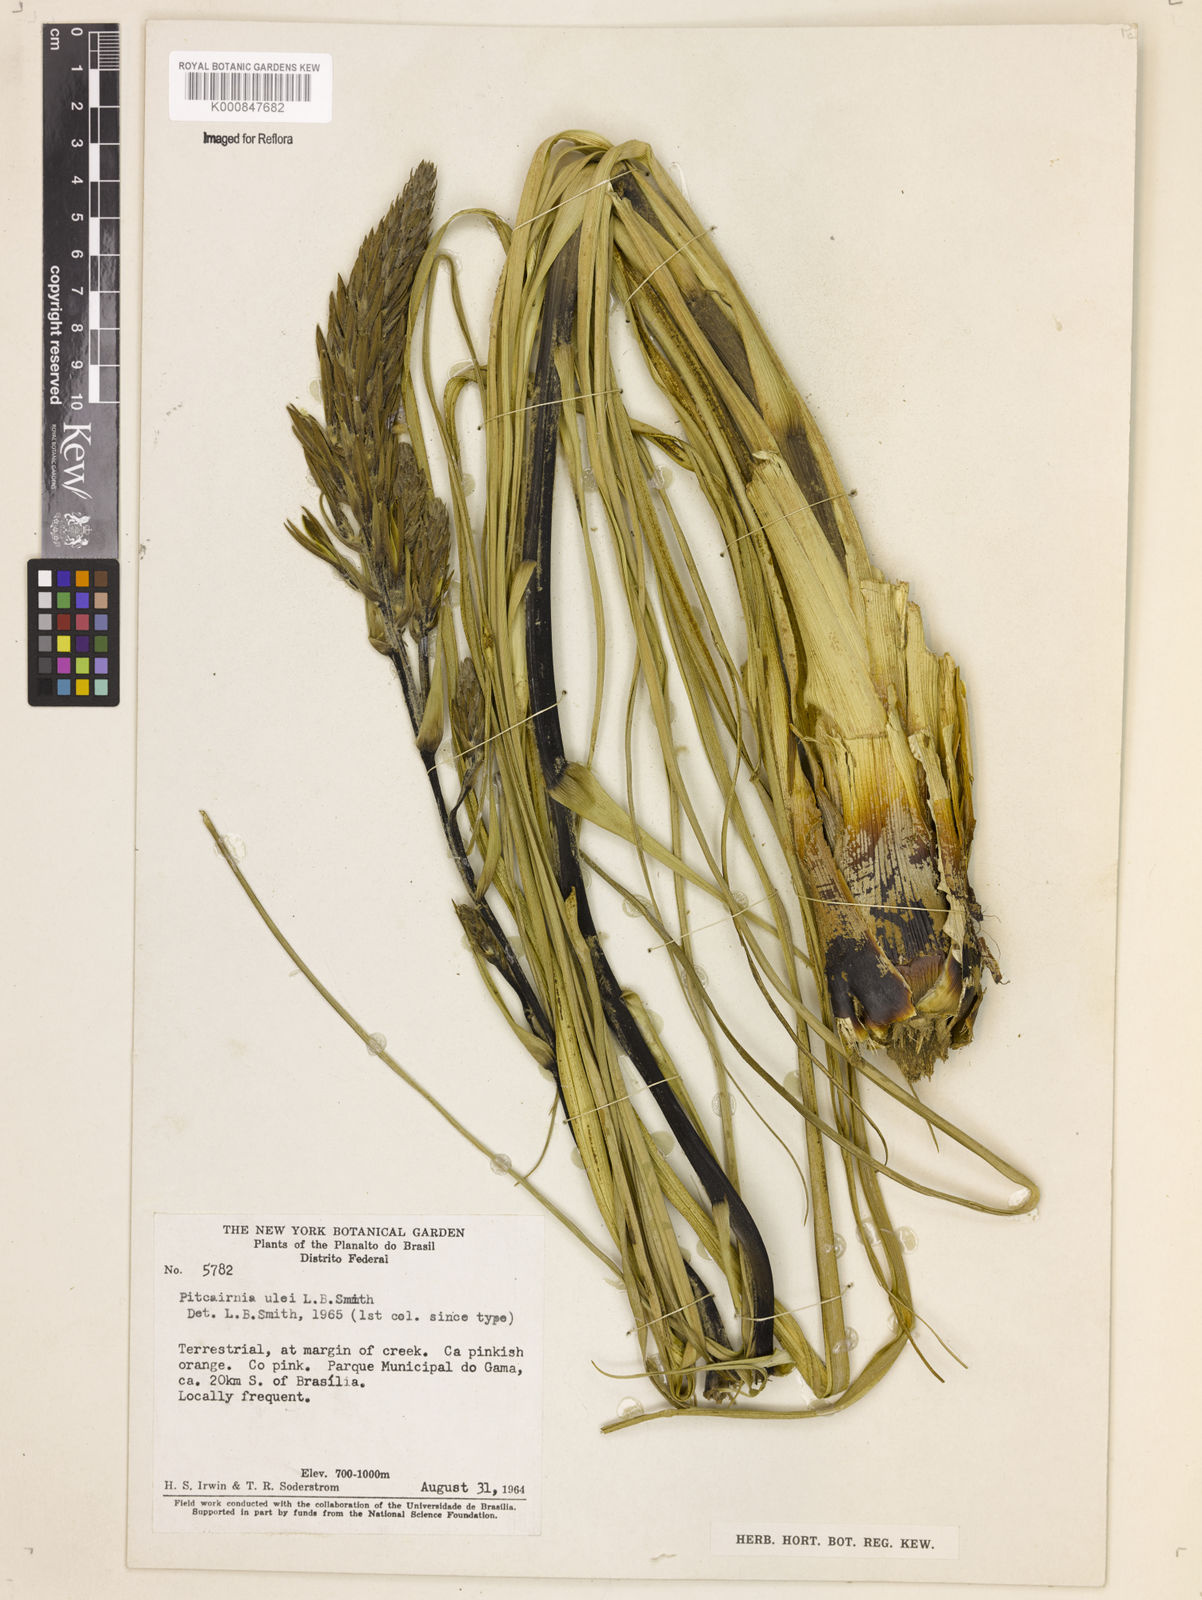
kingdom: Plantae
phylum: Tracheophyta
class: Liliopsida
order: Poales
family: Bromeliaceae
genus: Pitcairnia
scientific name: Pitcairnia ulei
